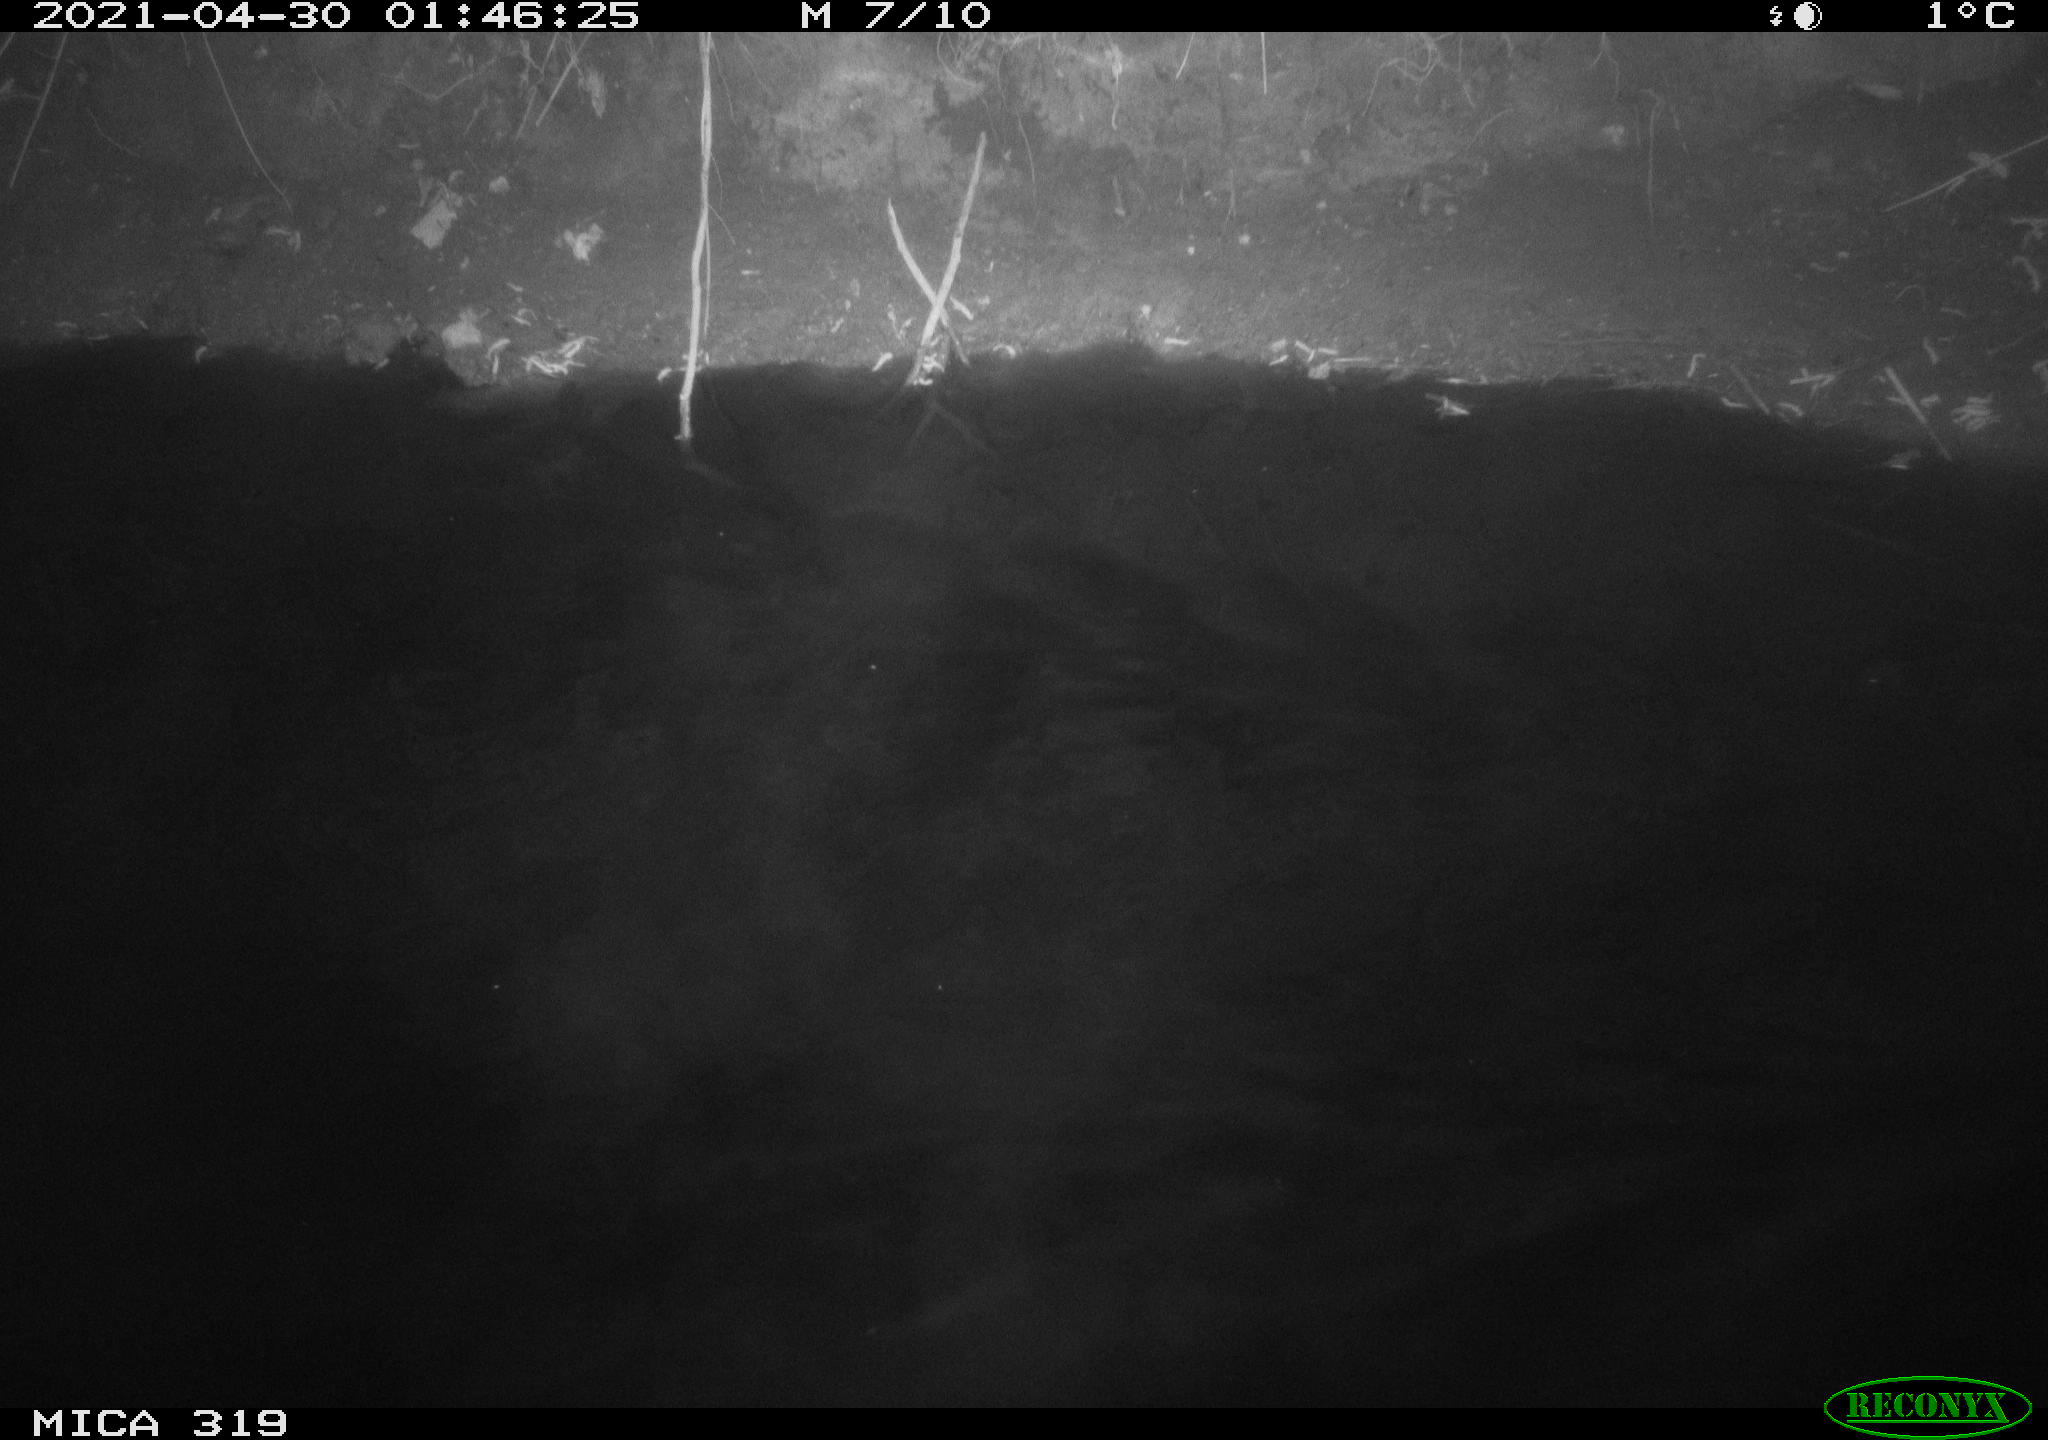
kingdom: Animalia
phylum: Chordata
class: Aves
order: Anseriformes
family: Anatidae
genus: Anas
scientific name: Anas platyrhynchos
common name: Mallard
